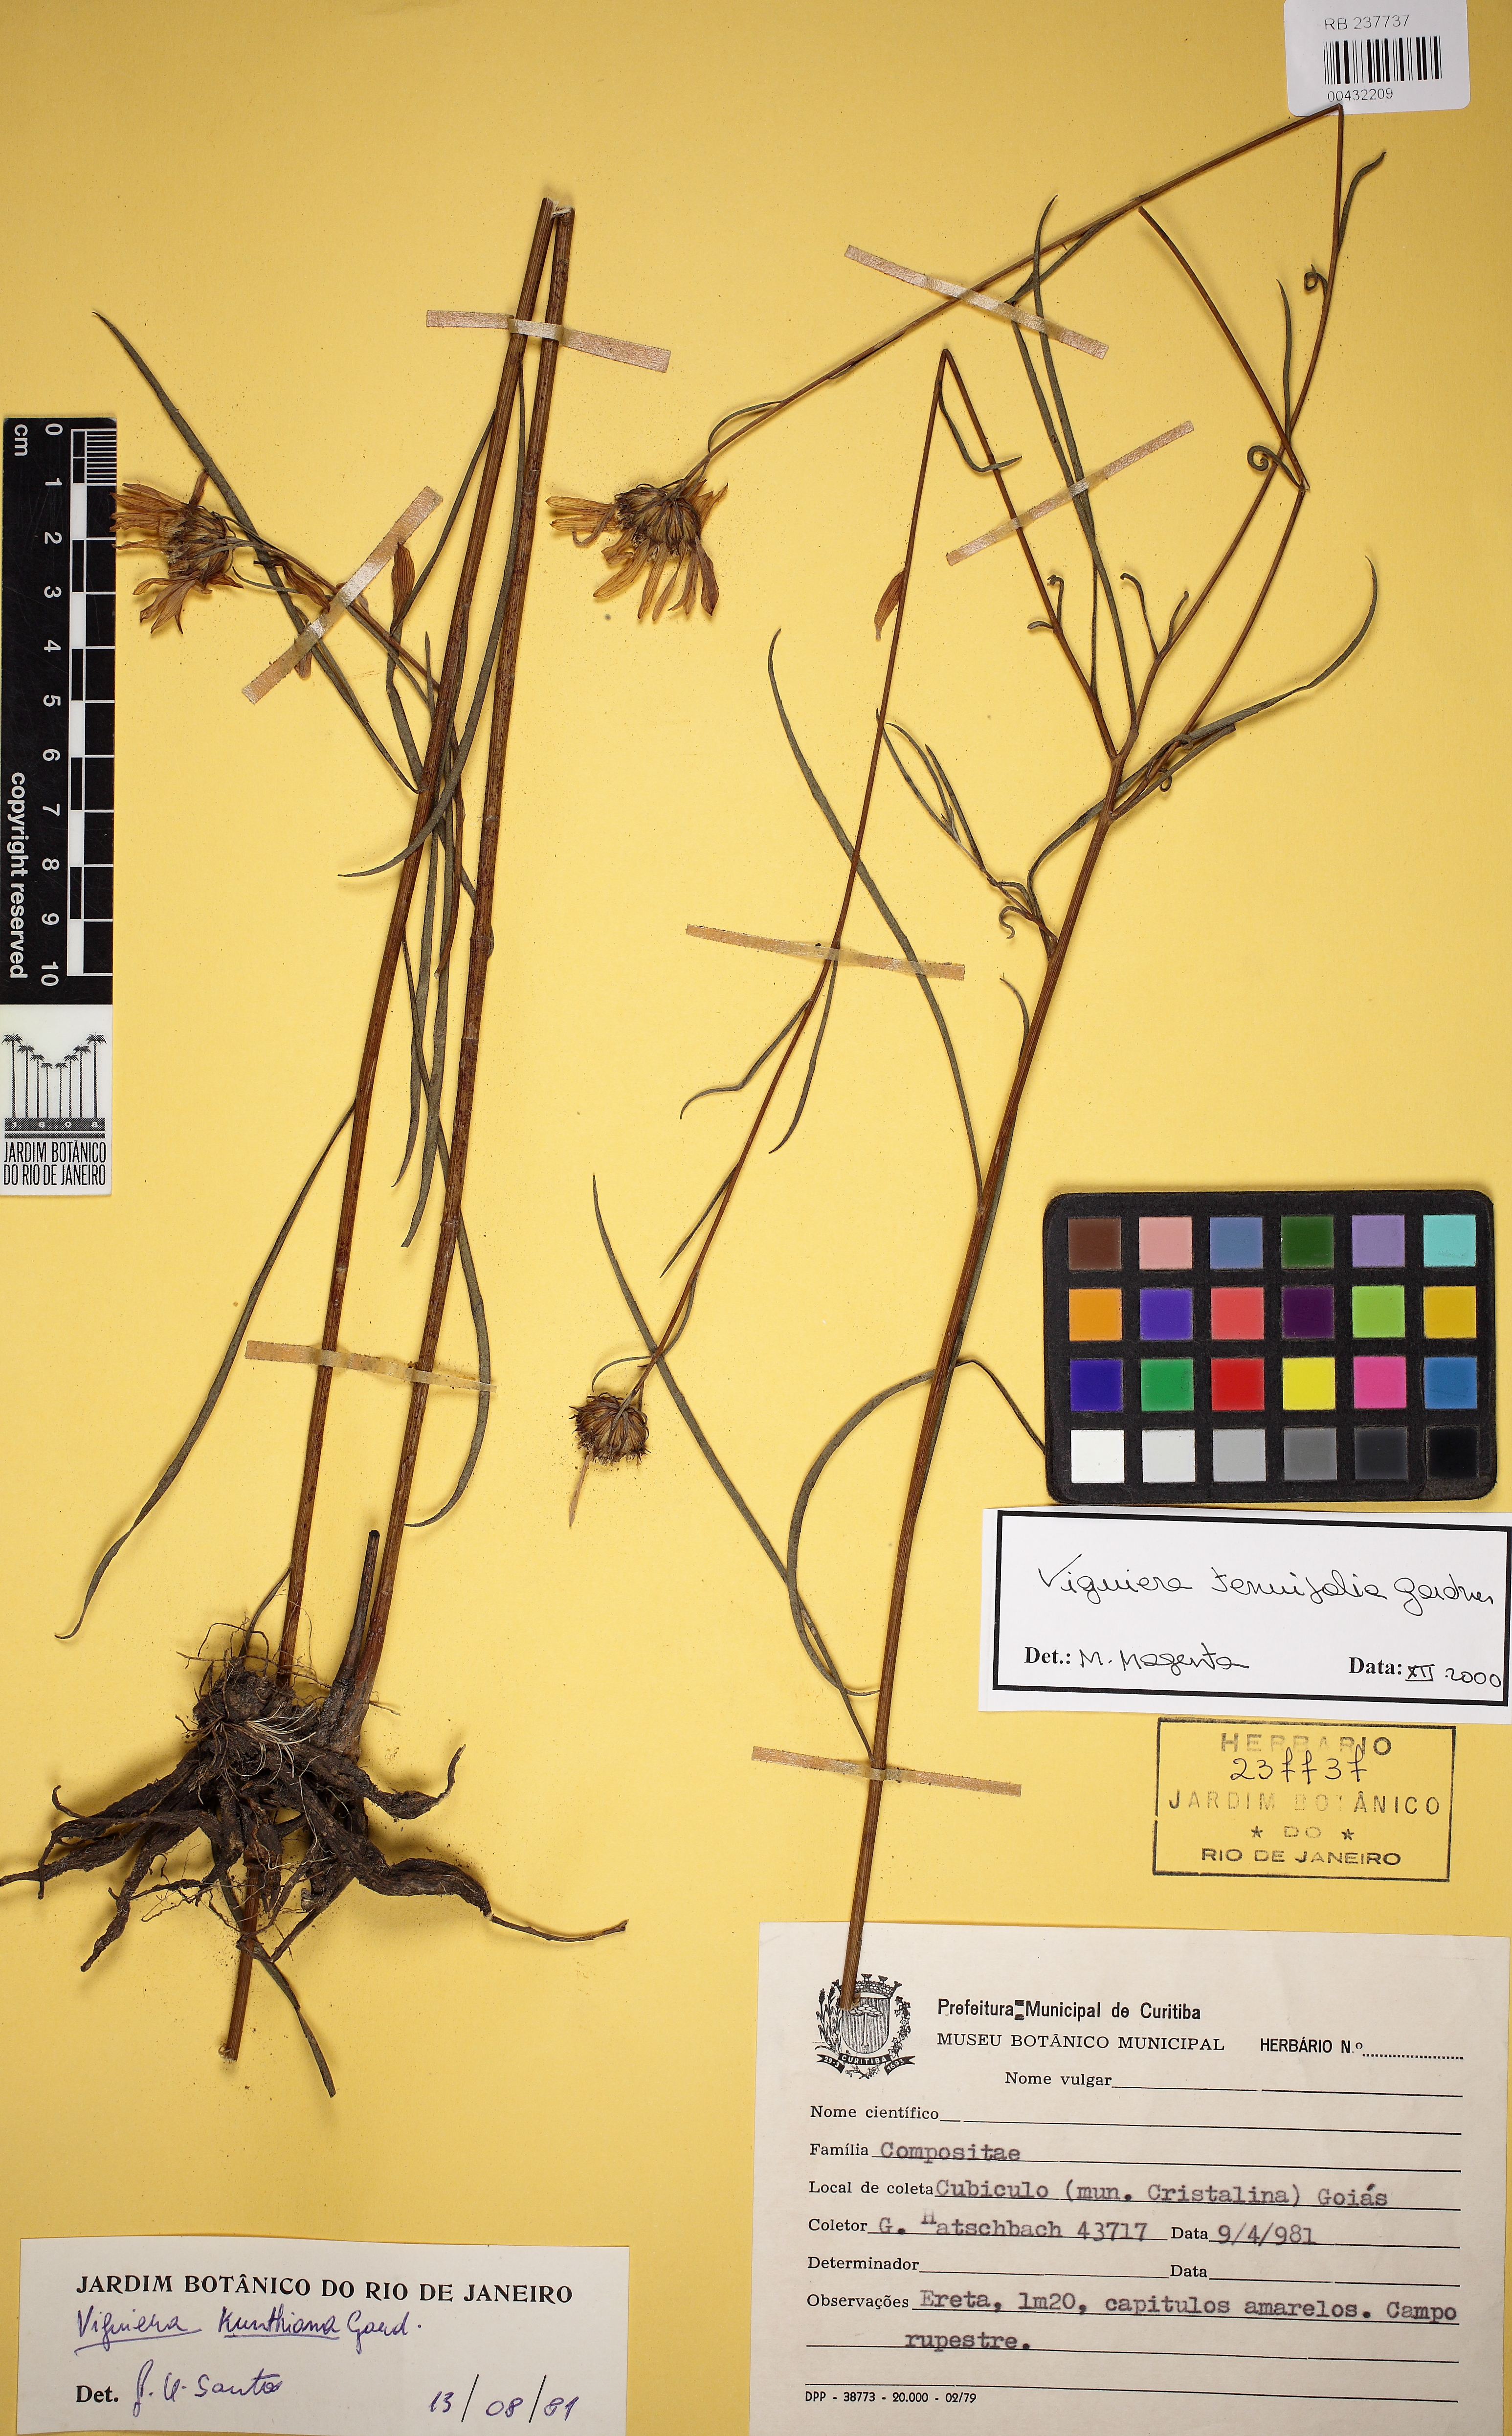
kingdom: Plantae
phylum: Tracheophyta
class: Magnoliopsida
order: Asterales
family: Asteraceae
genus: Aldama
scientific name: Aldama tenuifolia
